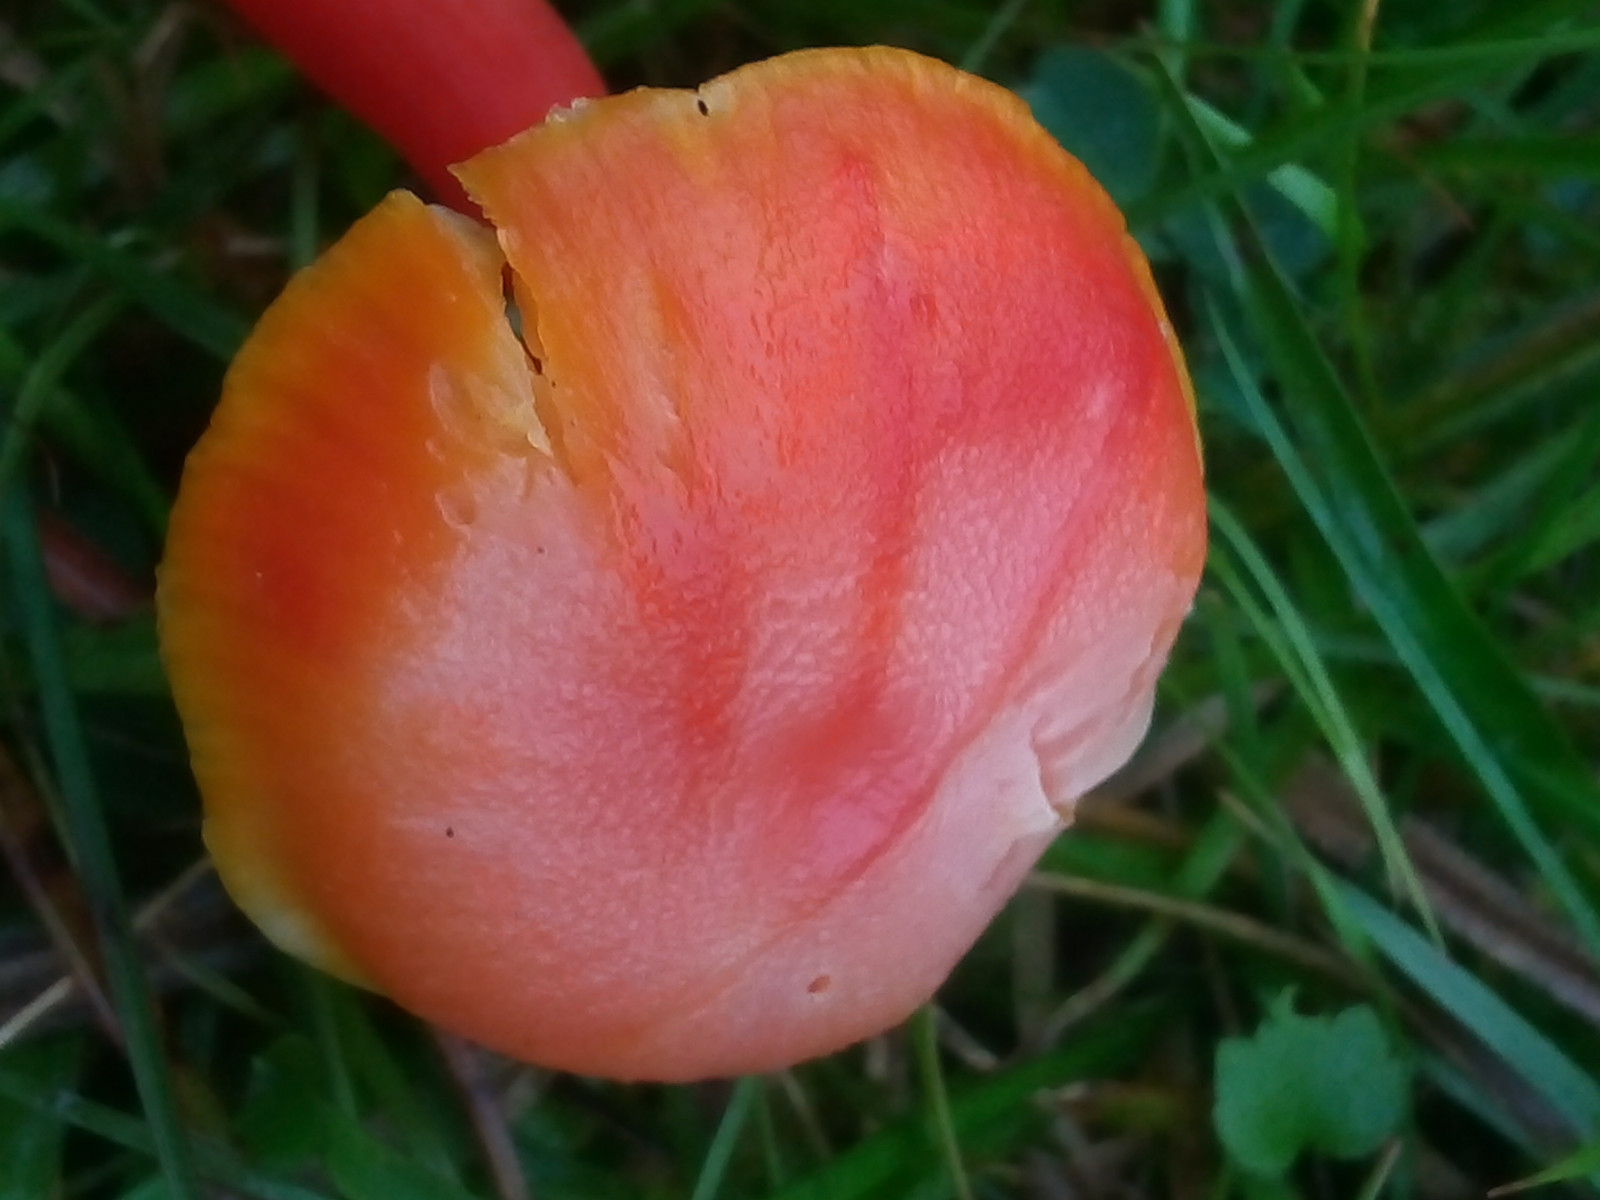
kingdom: Fungi
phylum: Basidiomycota
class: Agaricomycetes
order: Agaricales
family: Hygrophoraceae
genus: Hygrocybe
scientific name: Hygrocybe miniata
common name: mønje-vokshat
